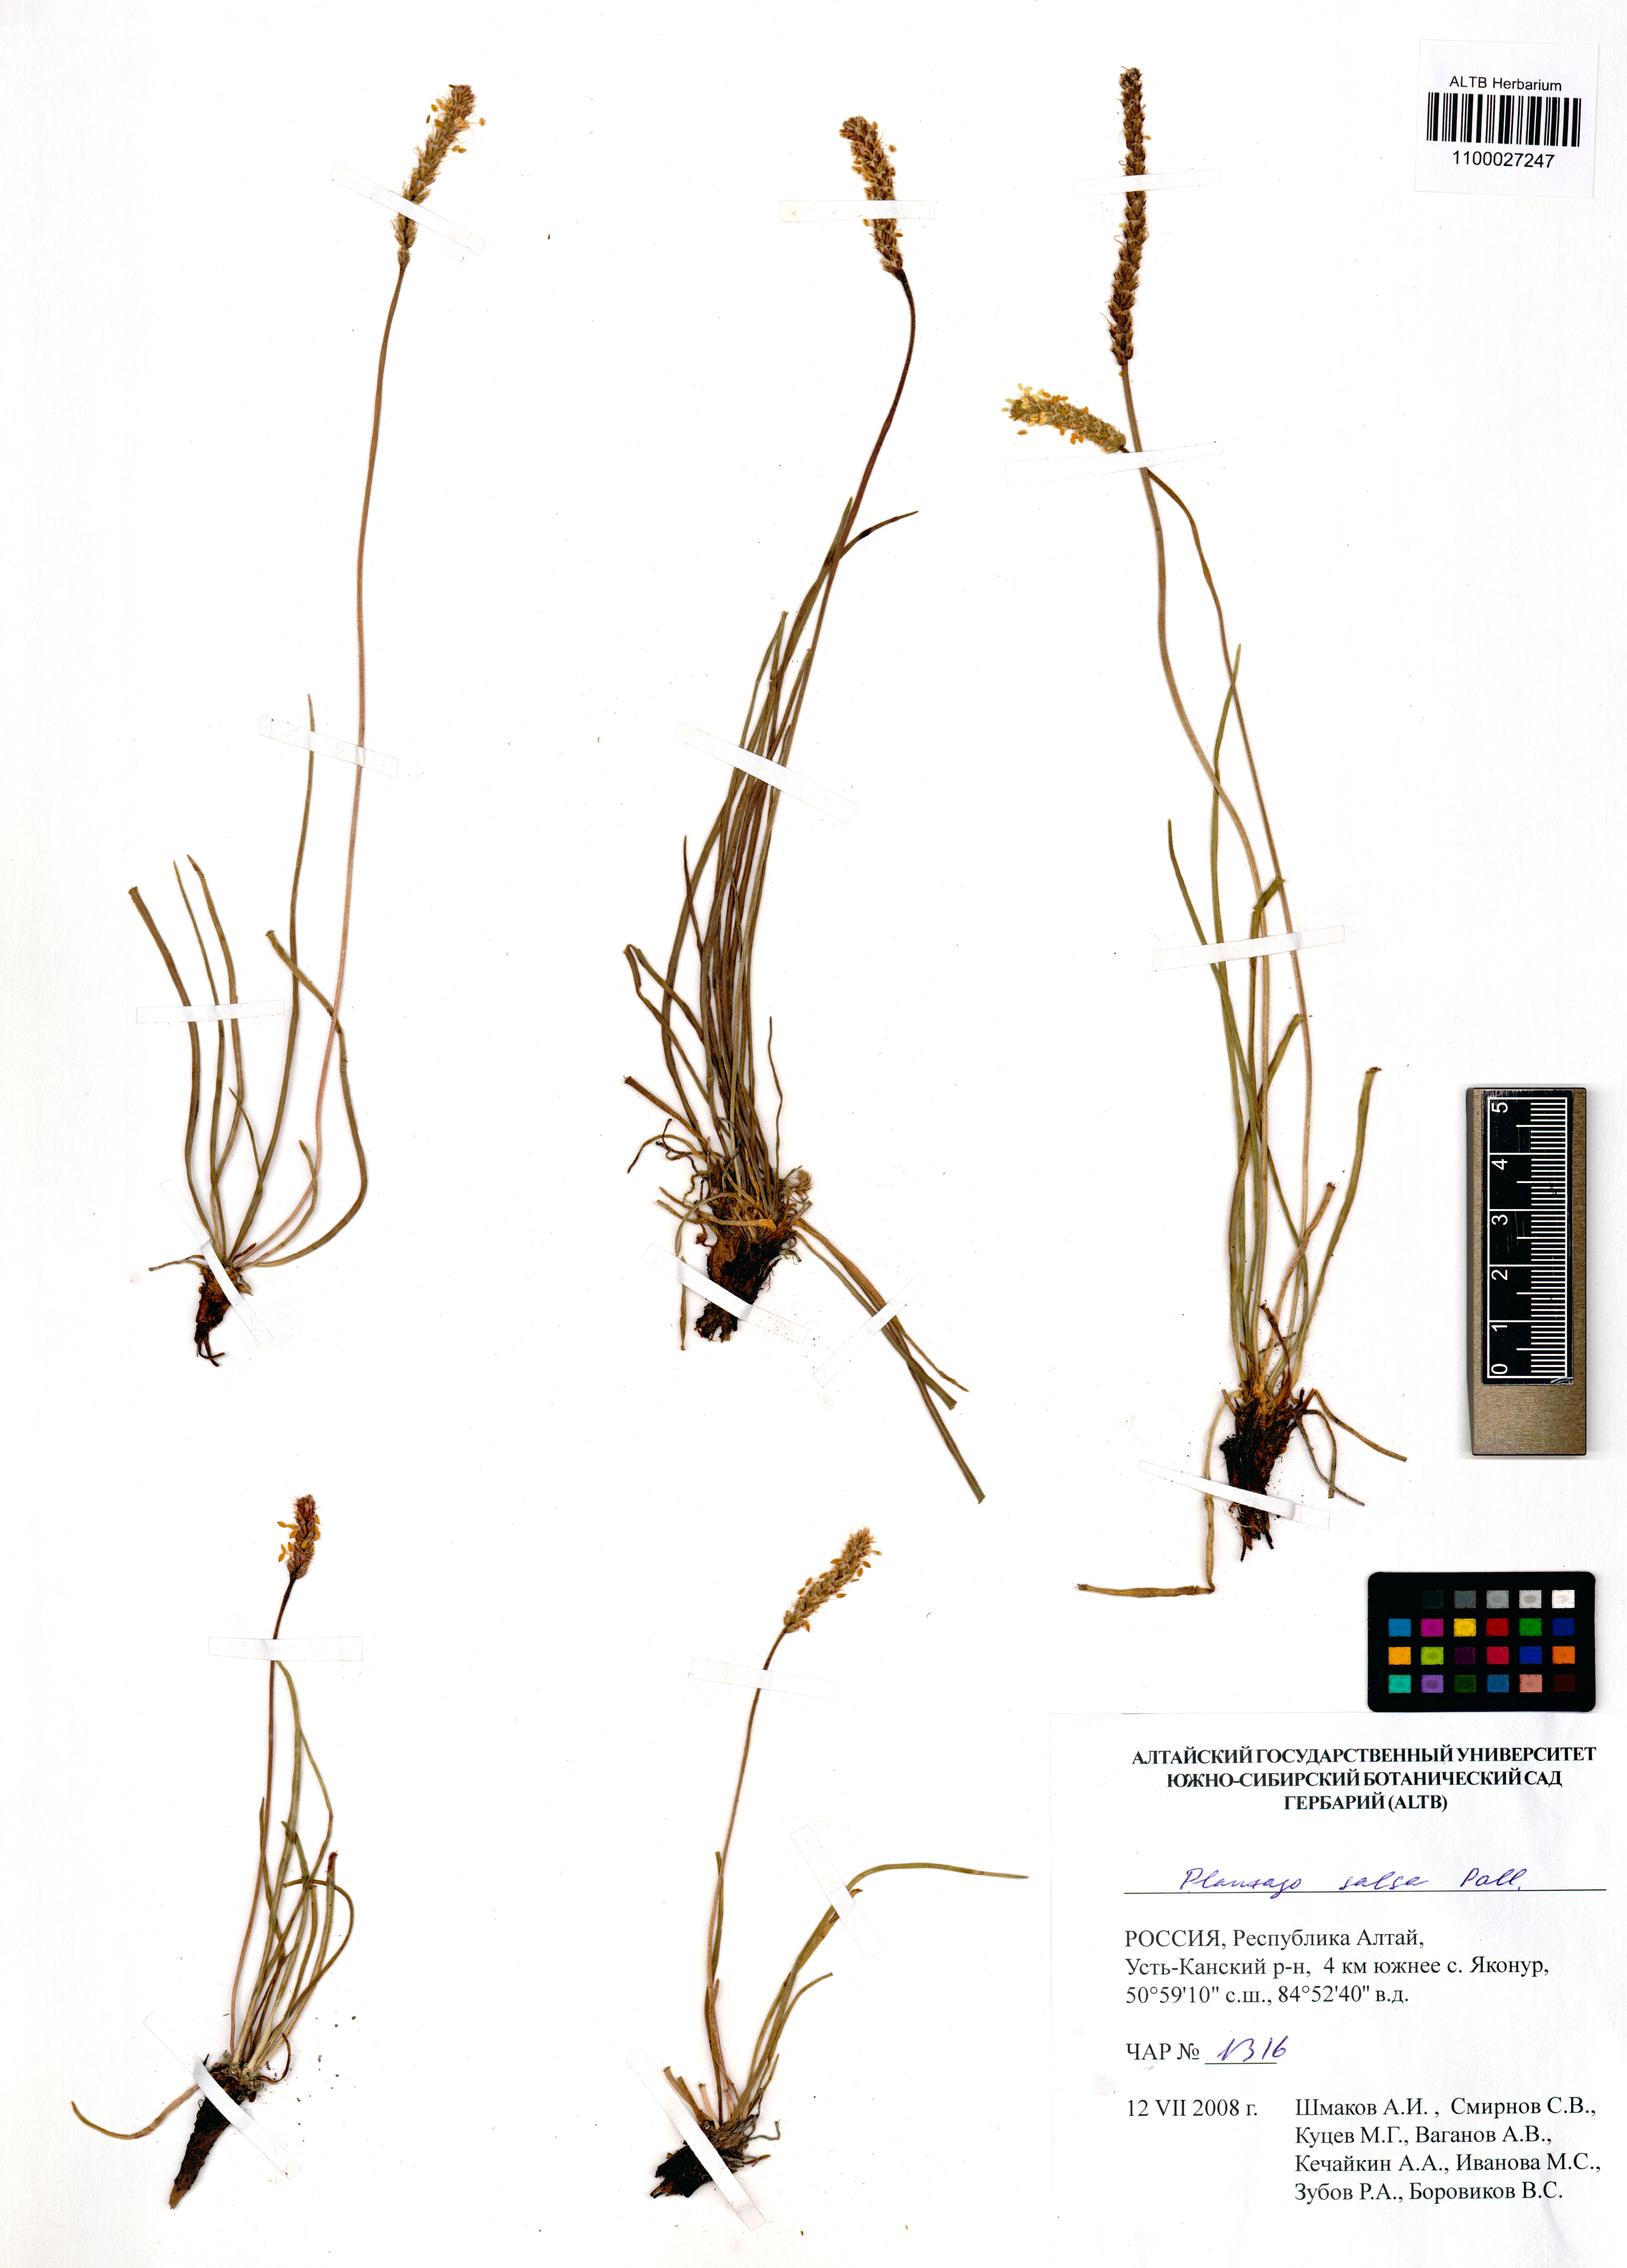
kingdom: Plantae
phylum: Tracheophyta
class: Magnoliopsida
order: Lamiales
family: Plantaginaceae
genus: Plantago
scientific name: Plantago salsa
